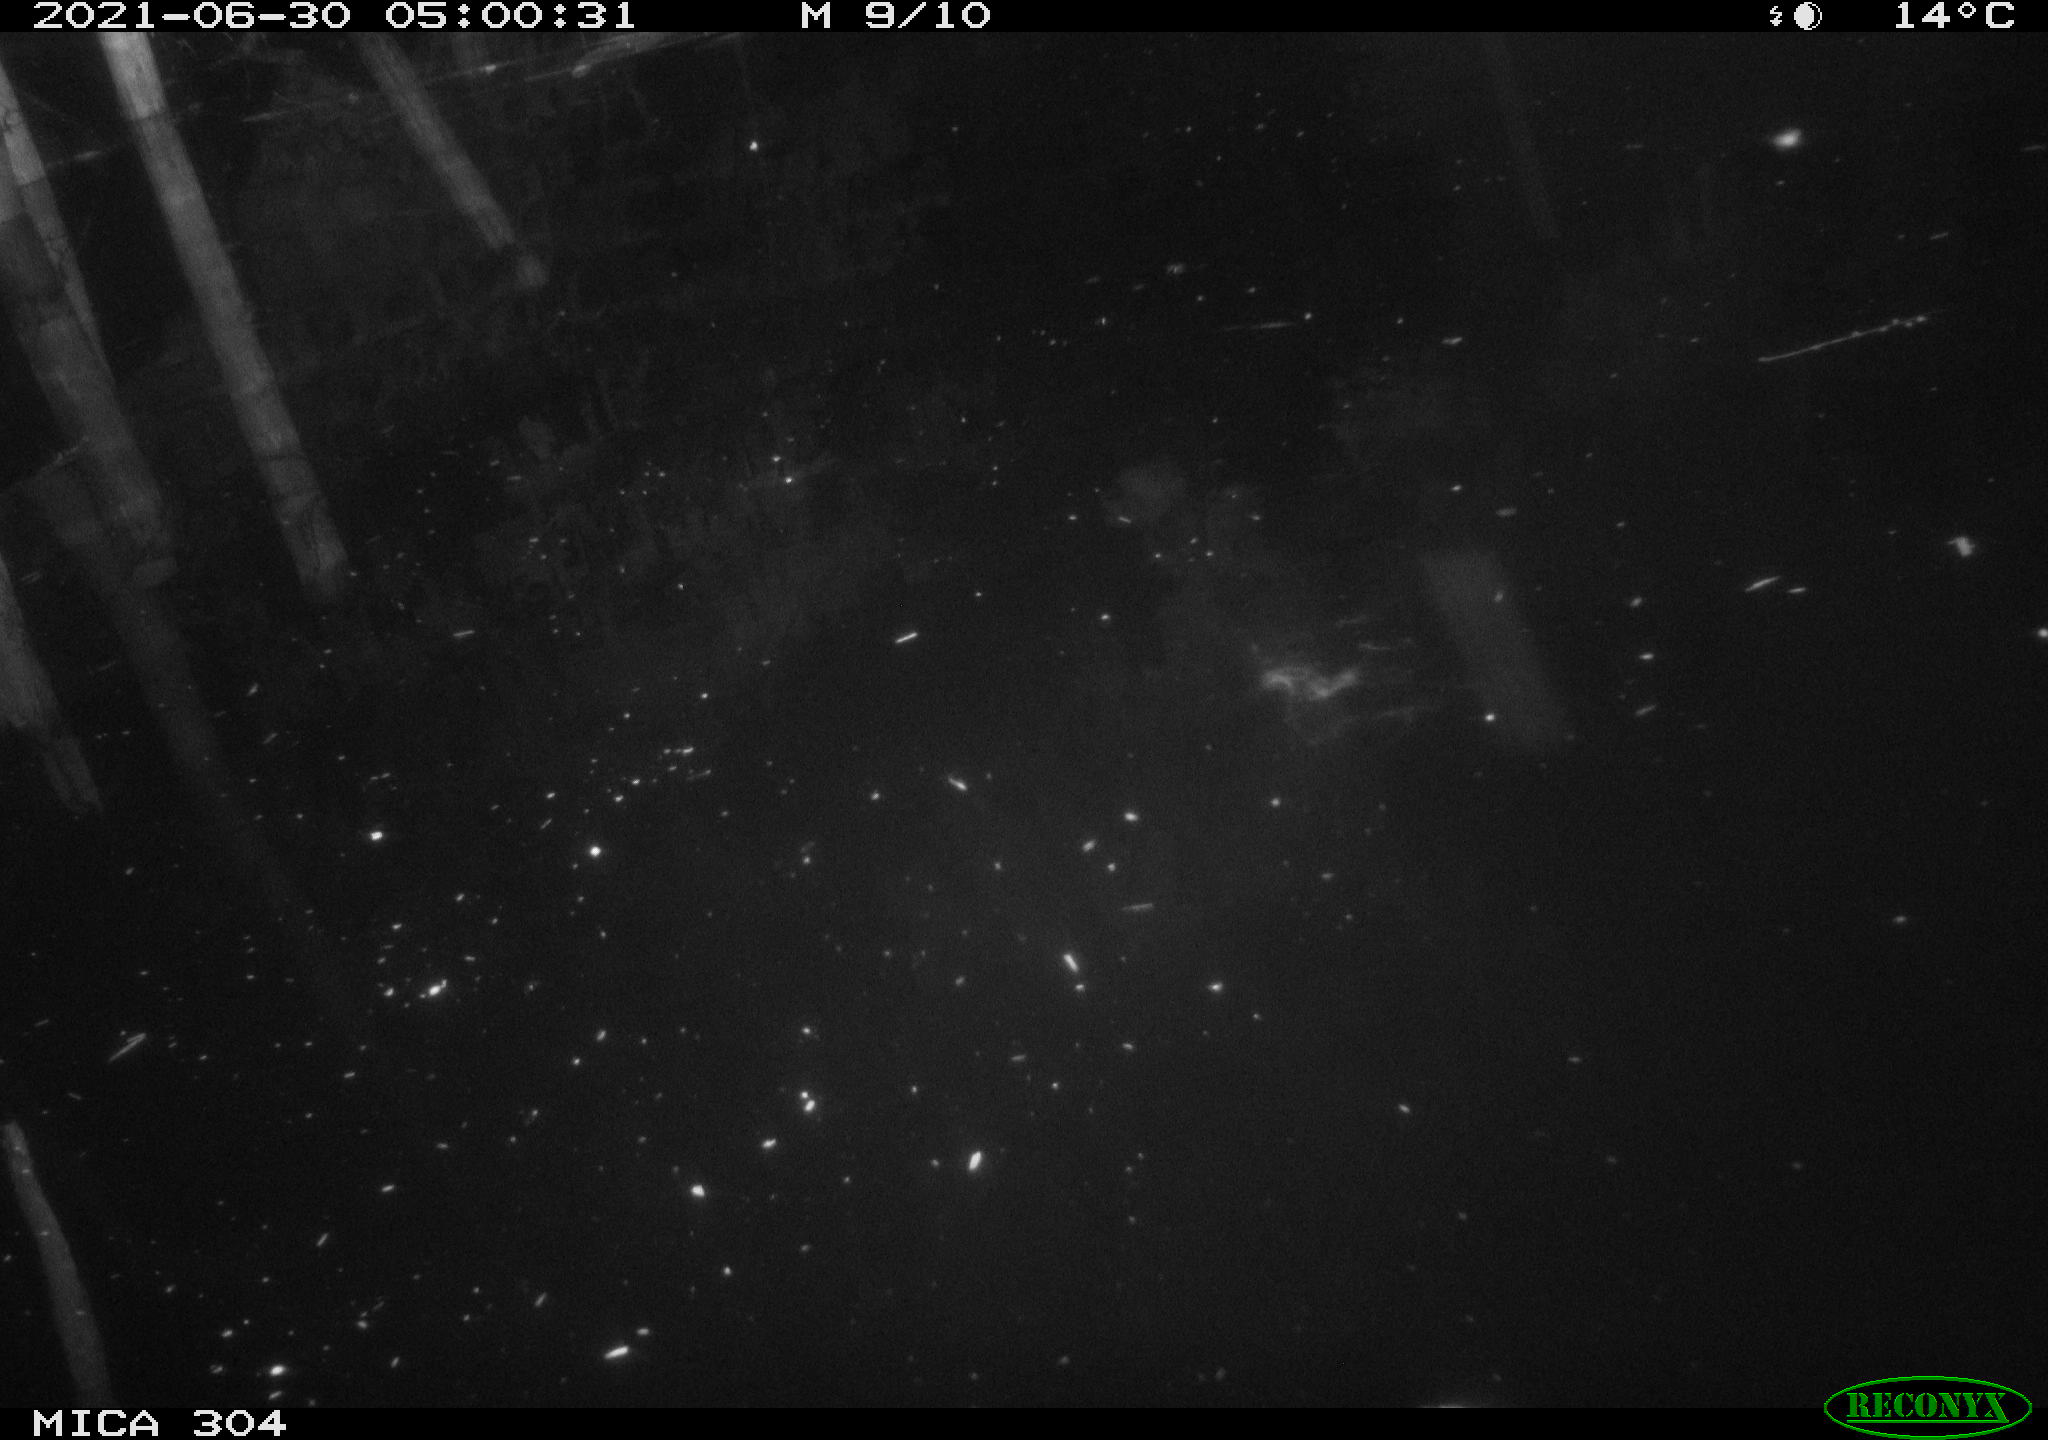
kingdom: Animalia
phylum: Chordata
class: Aves
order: Anseriformes
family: Anatidae
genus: Anas
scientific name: Anas platyrhynchos
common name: Mallard
